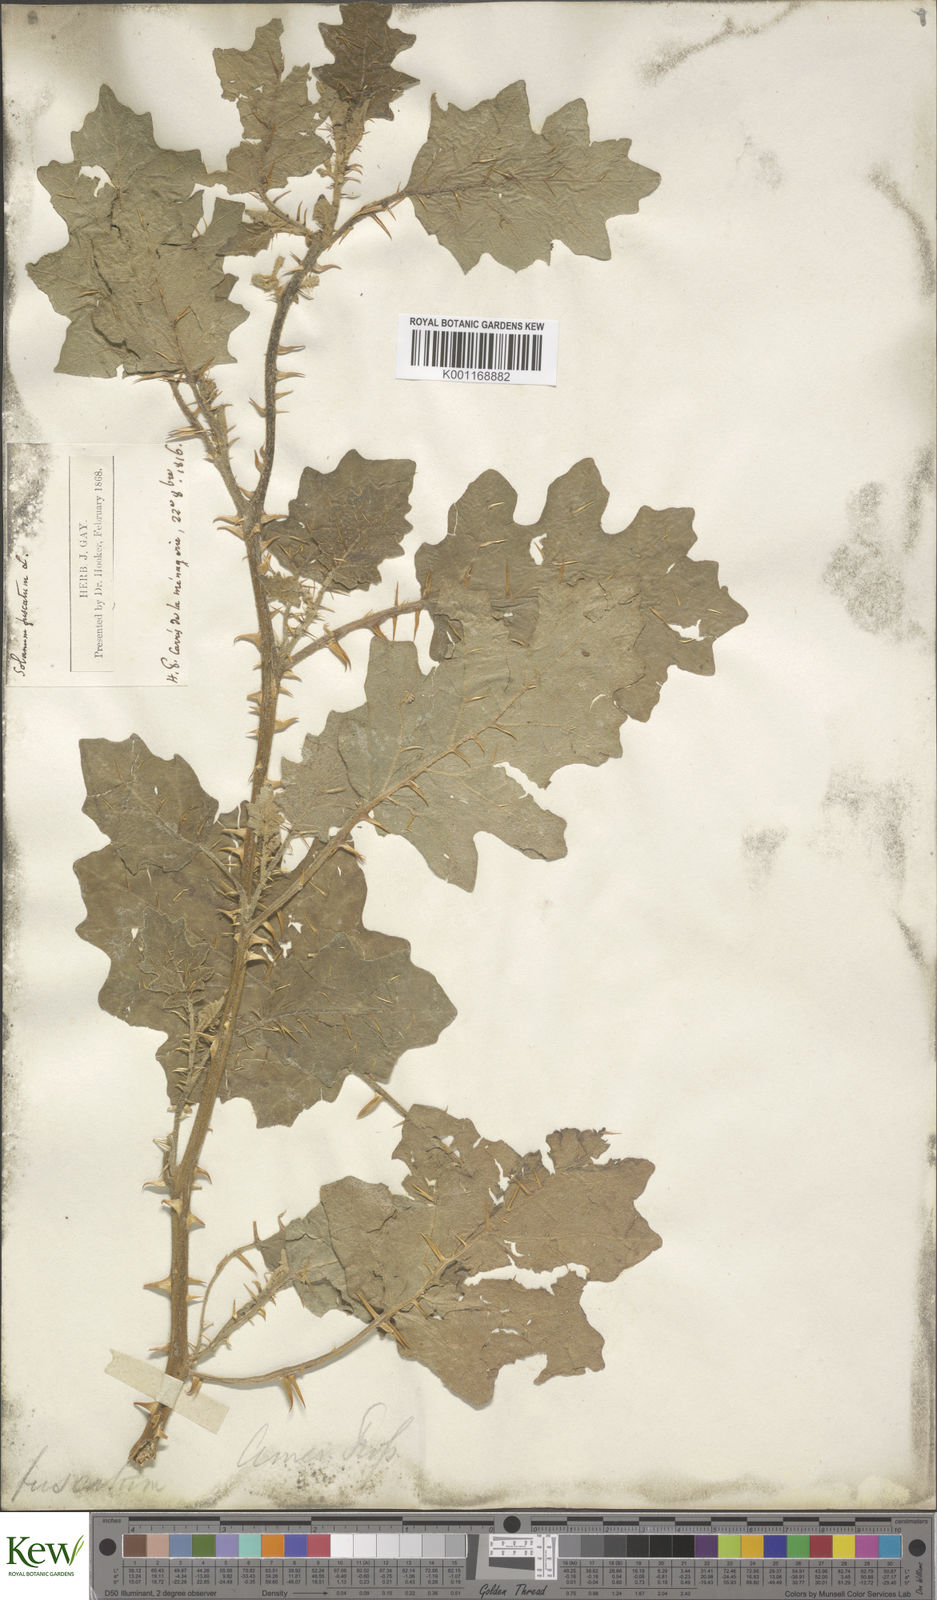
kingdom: Plantae
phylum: Tracheophyta
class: Magnoliopsida
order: Solanales
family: Solanaceae
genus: Solanum
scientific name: Solanum insanum
